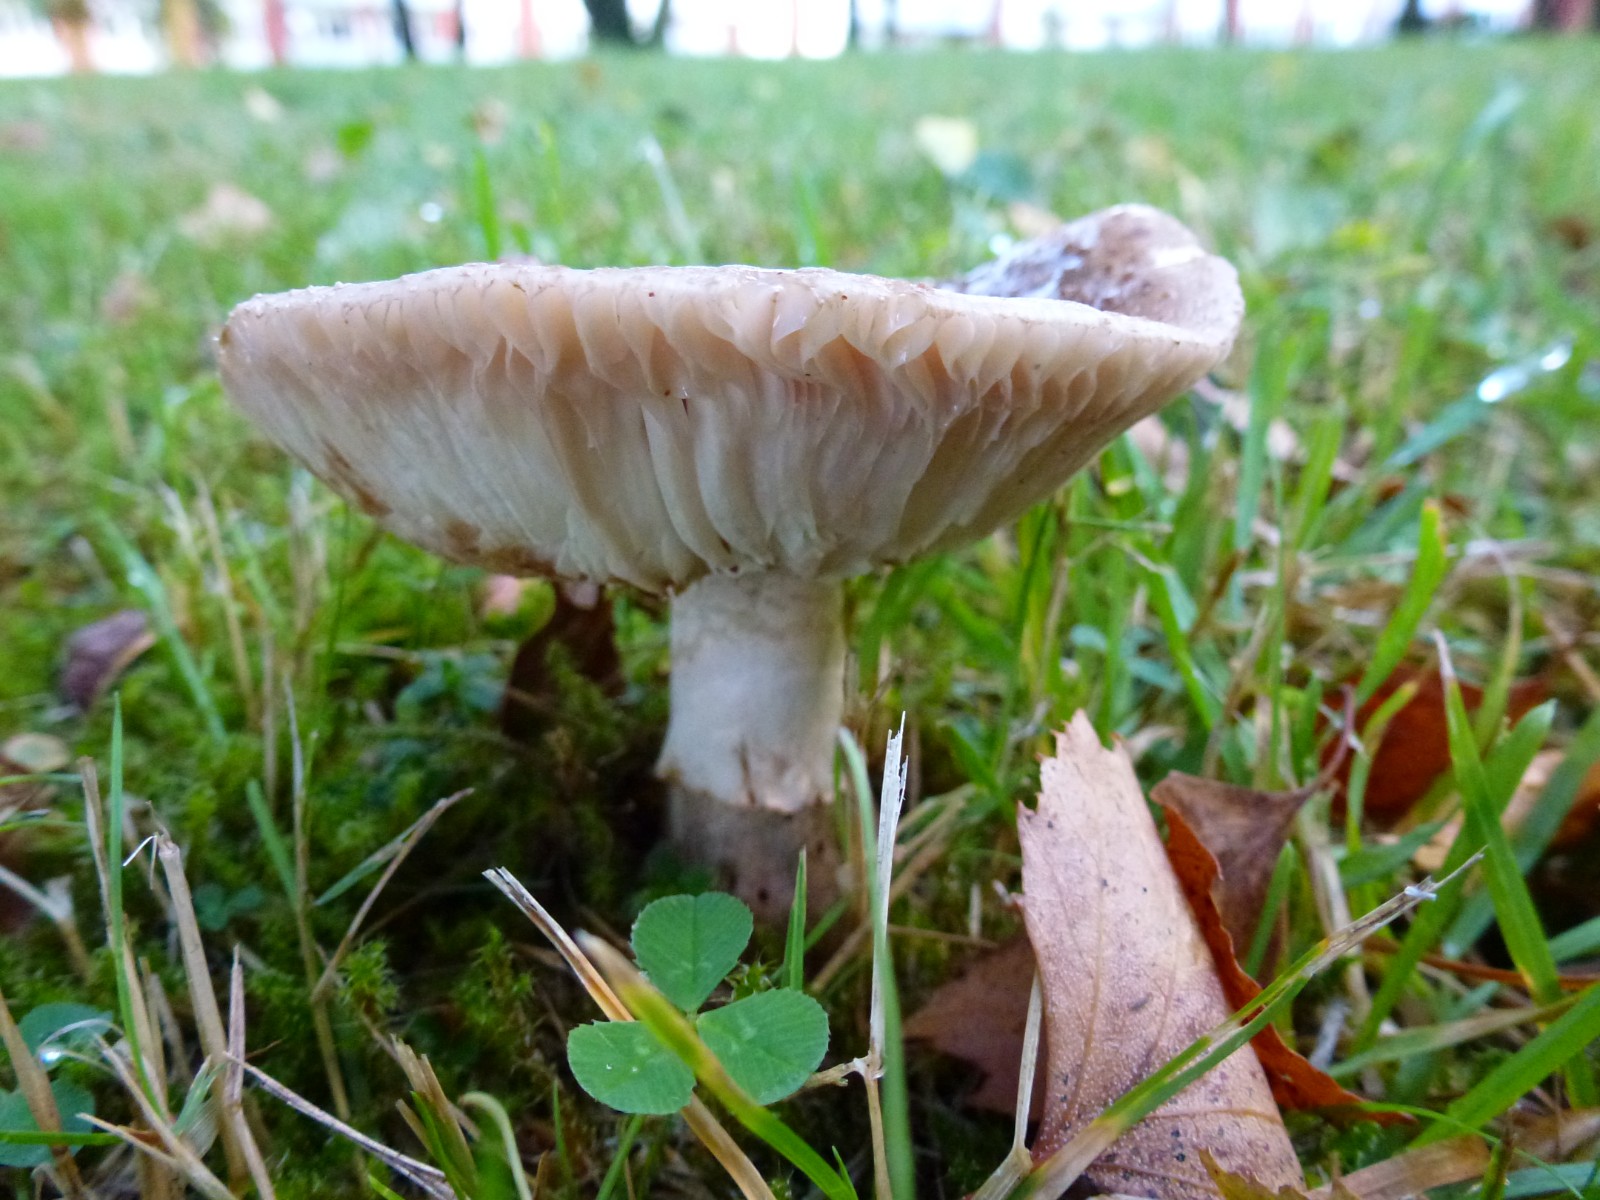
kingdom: Fungi
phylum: Basidiomycota
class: Agaricomycetes
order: Agaricales
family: Amanitaceae
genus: Amanita
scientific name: Amanita rubescens
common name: rødmende fluesvamp
